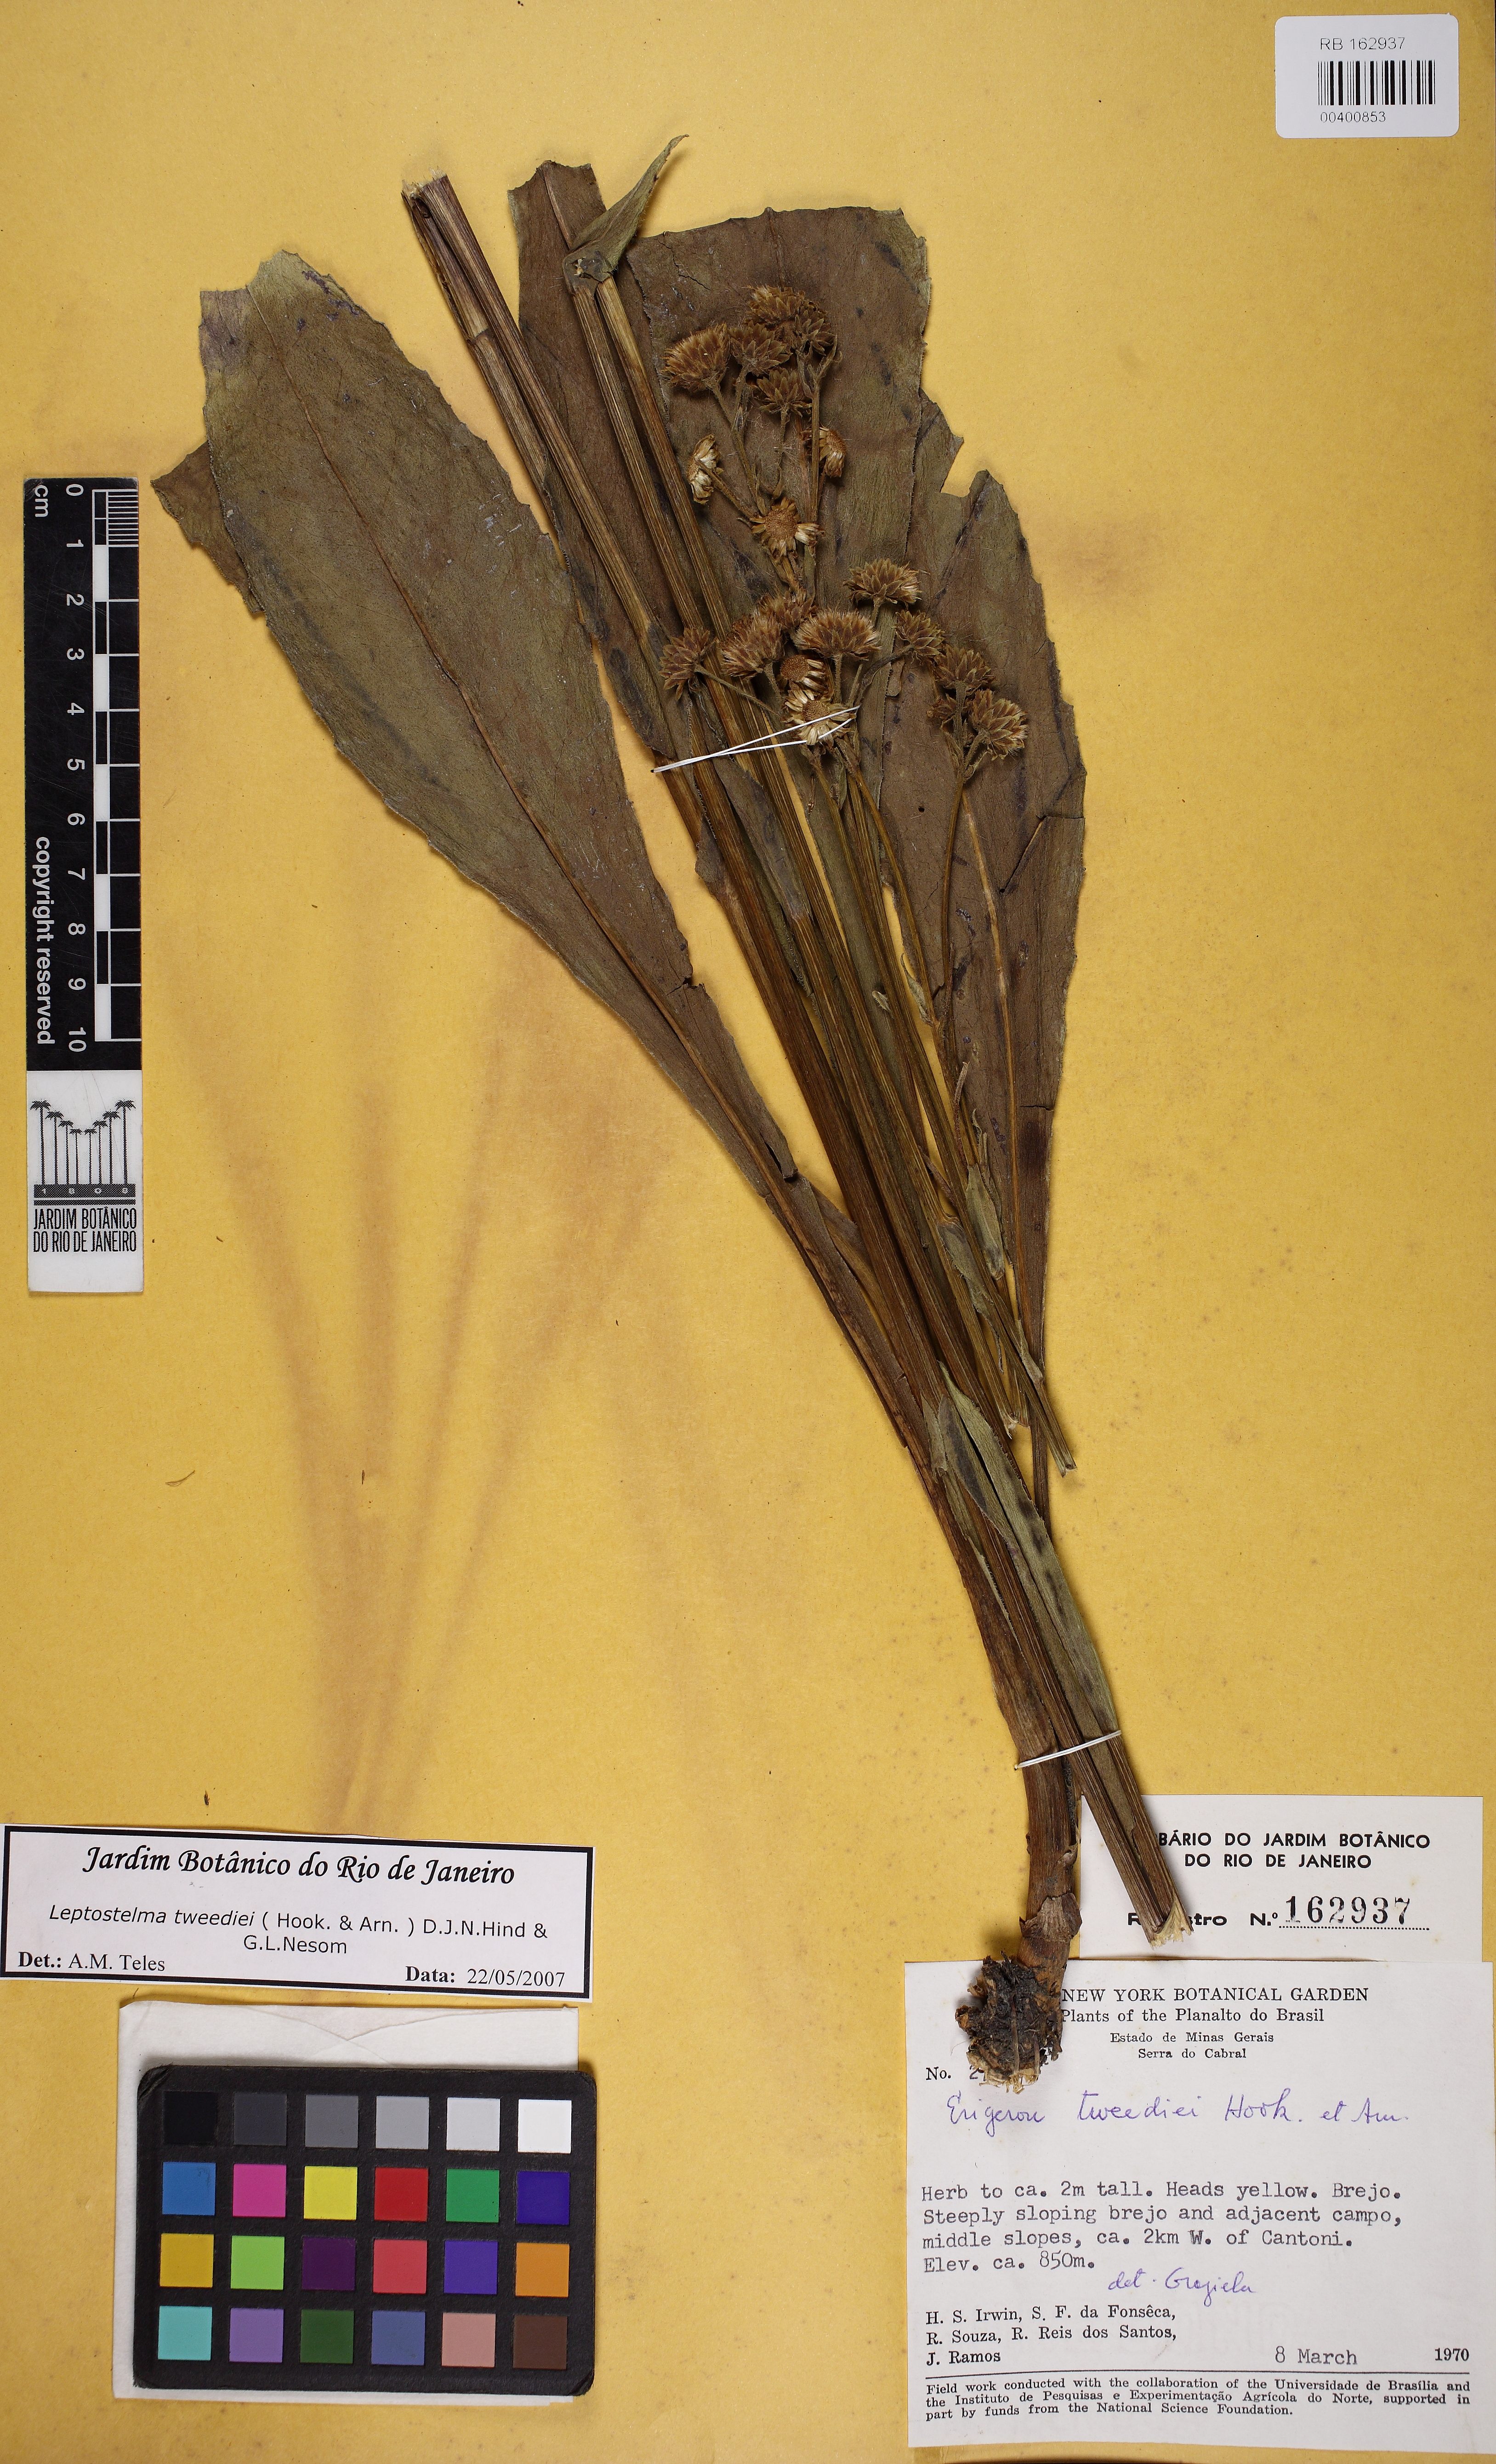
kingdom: Plantae
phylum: Tracheophyta
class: Magnoliopsida
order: Asterales
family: Asteraceae
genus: Leptostelma
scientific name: Leptostelma tweediei
